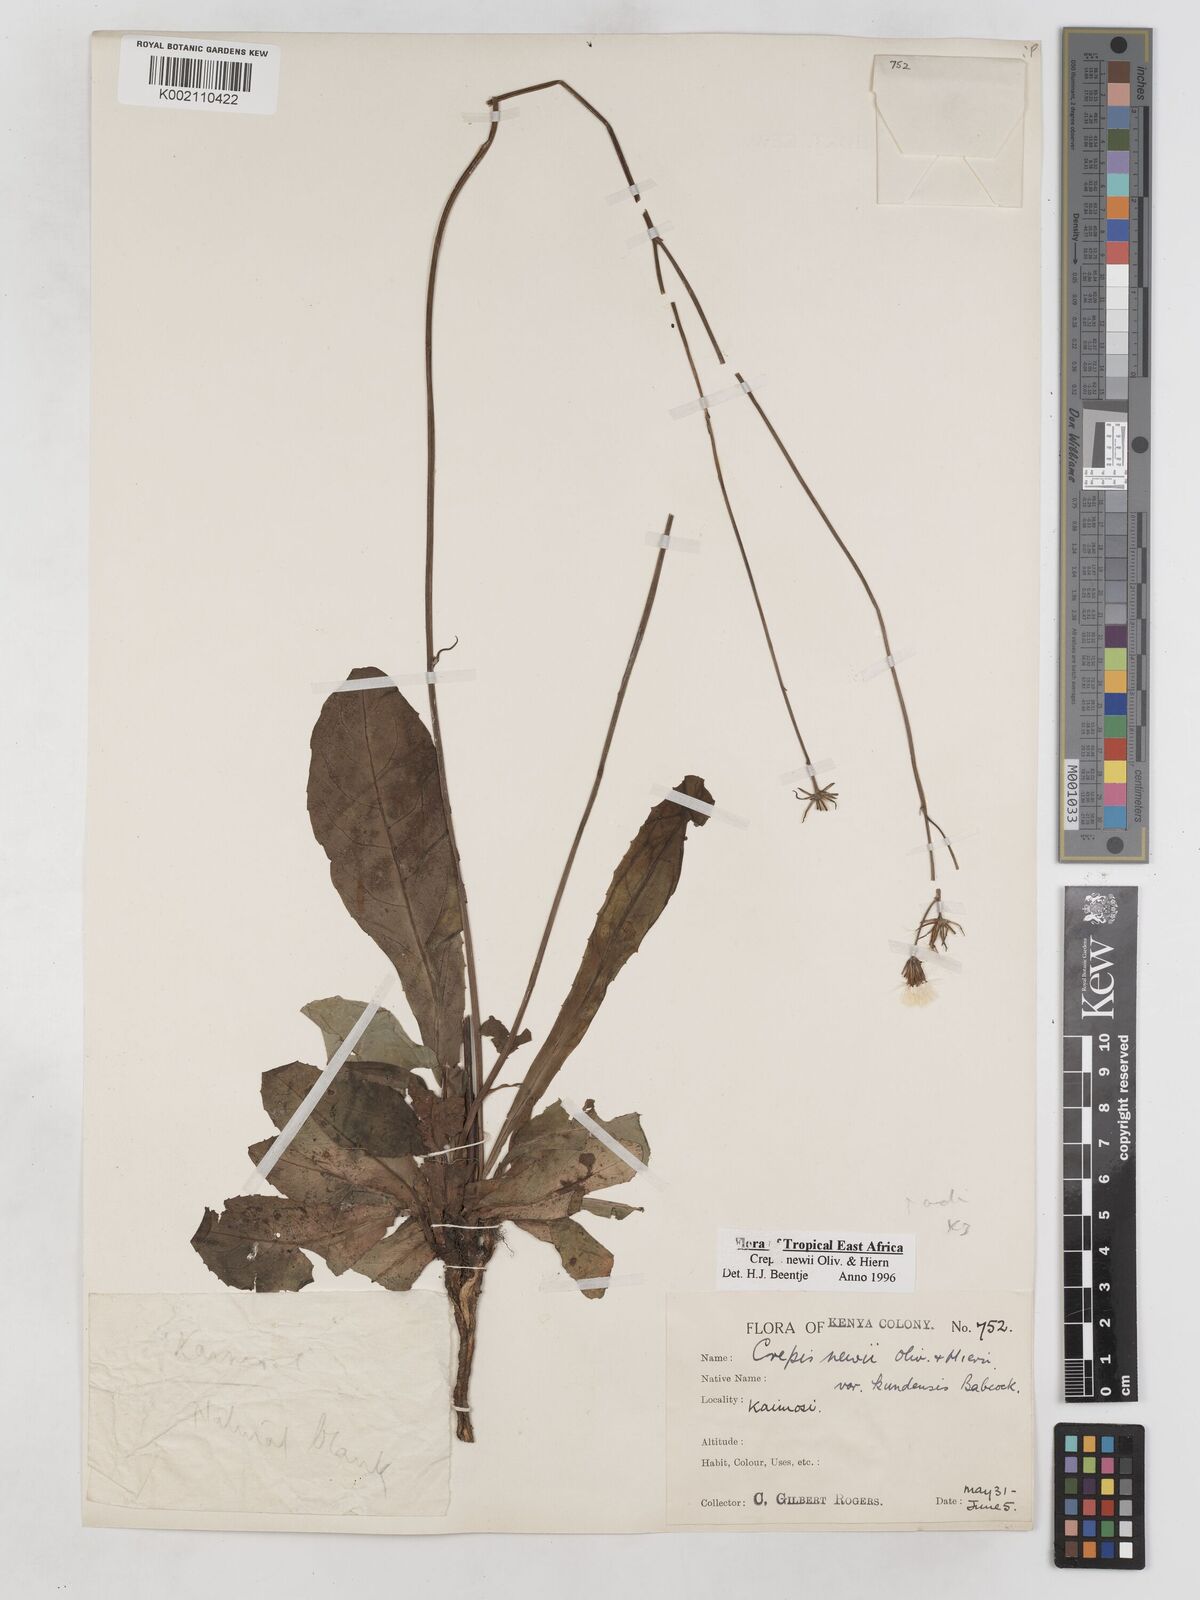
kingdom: Plantae
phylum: Tracheophyta
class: Magnoliopsida
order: Asterales
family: Asteraceae
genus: Crepis
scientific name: Crepis hypochoeridea
